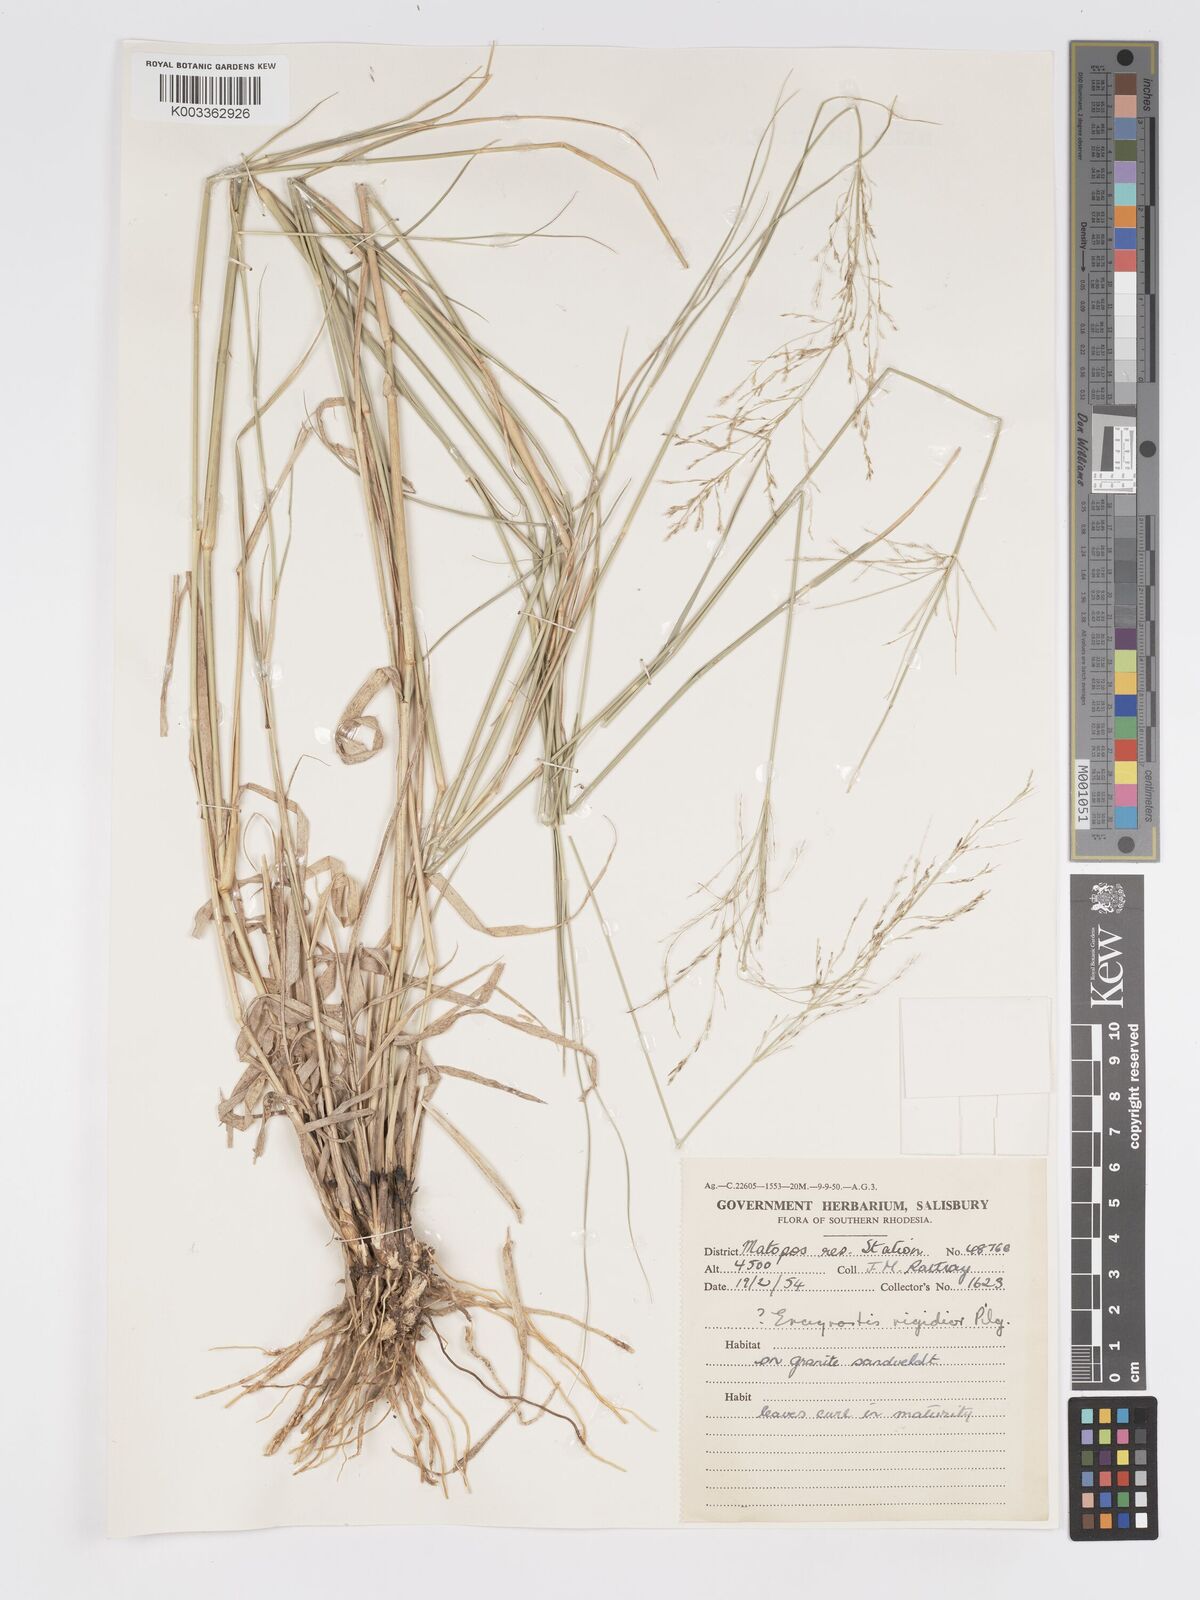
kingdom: Plantae
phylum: Tracheophyta
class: Liliopsida
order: Poales
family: Poaceae
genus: Eragrostis
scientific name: Eragrostis cylindriflora
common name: Cylinderflower lovegrass
